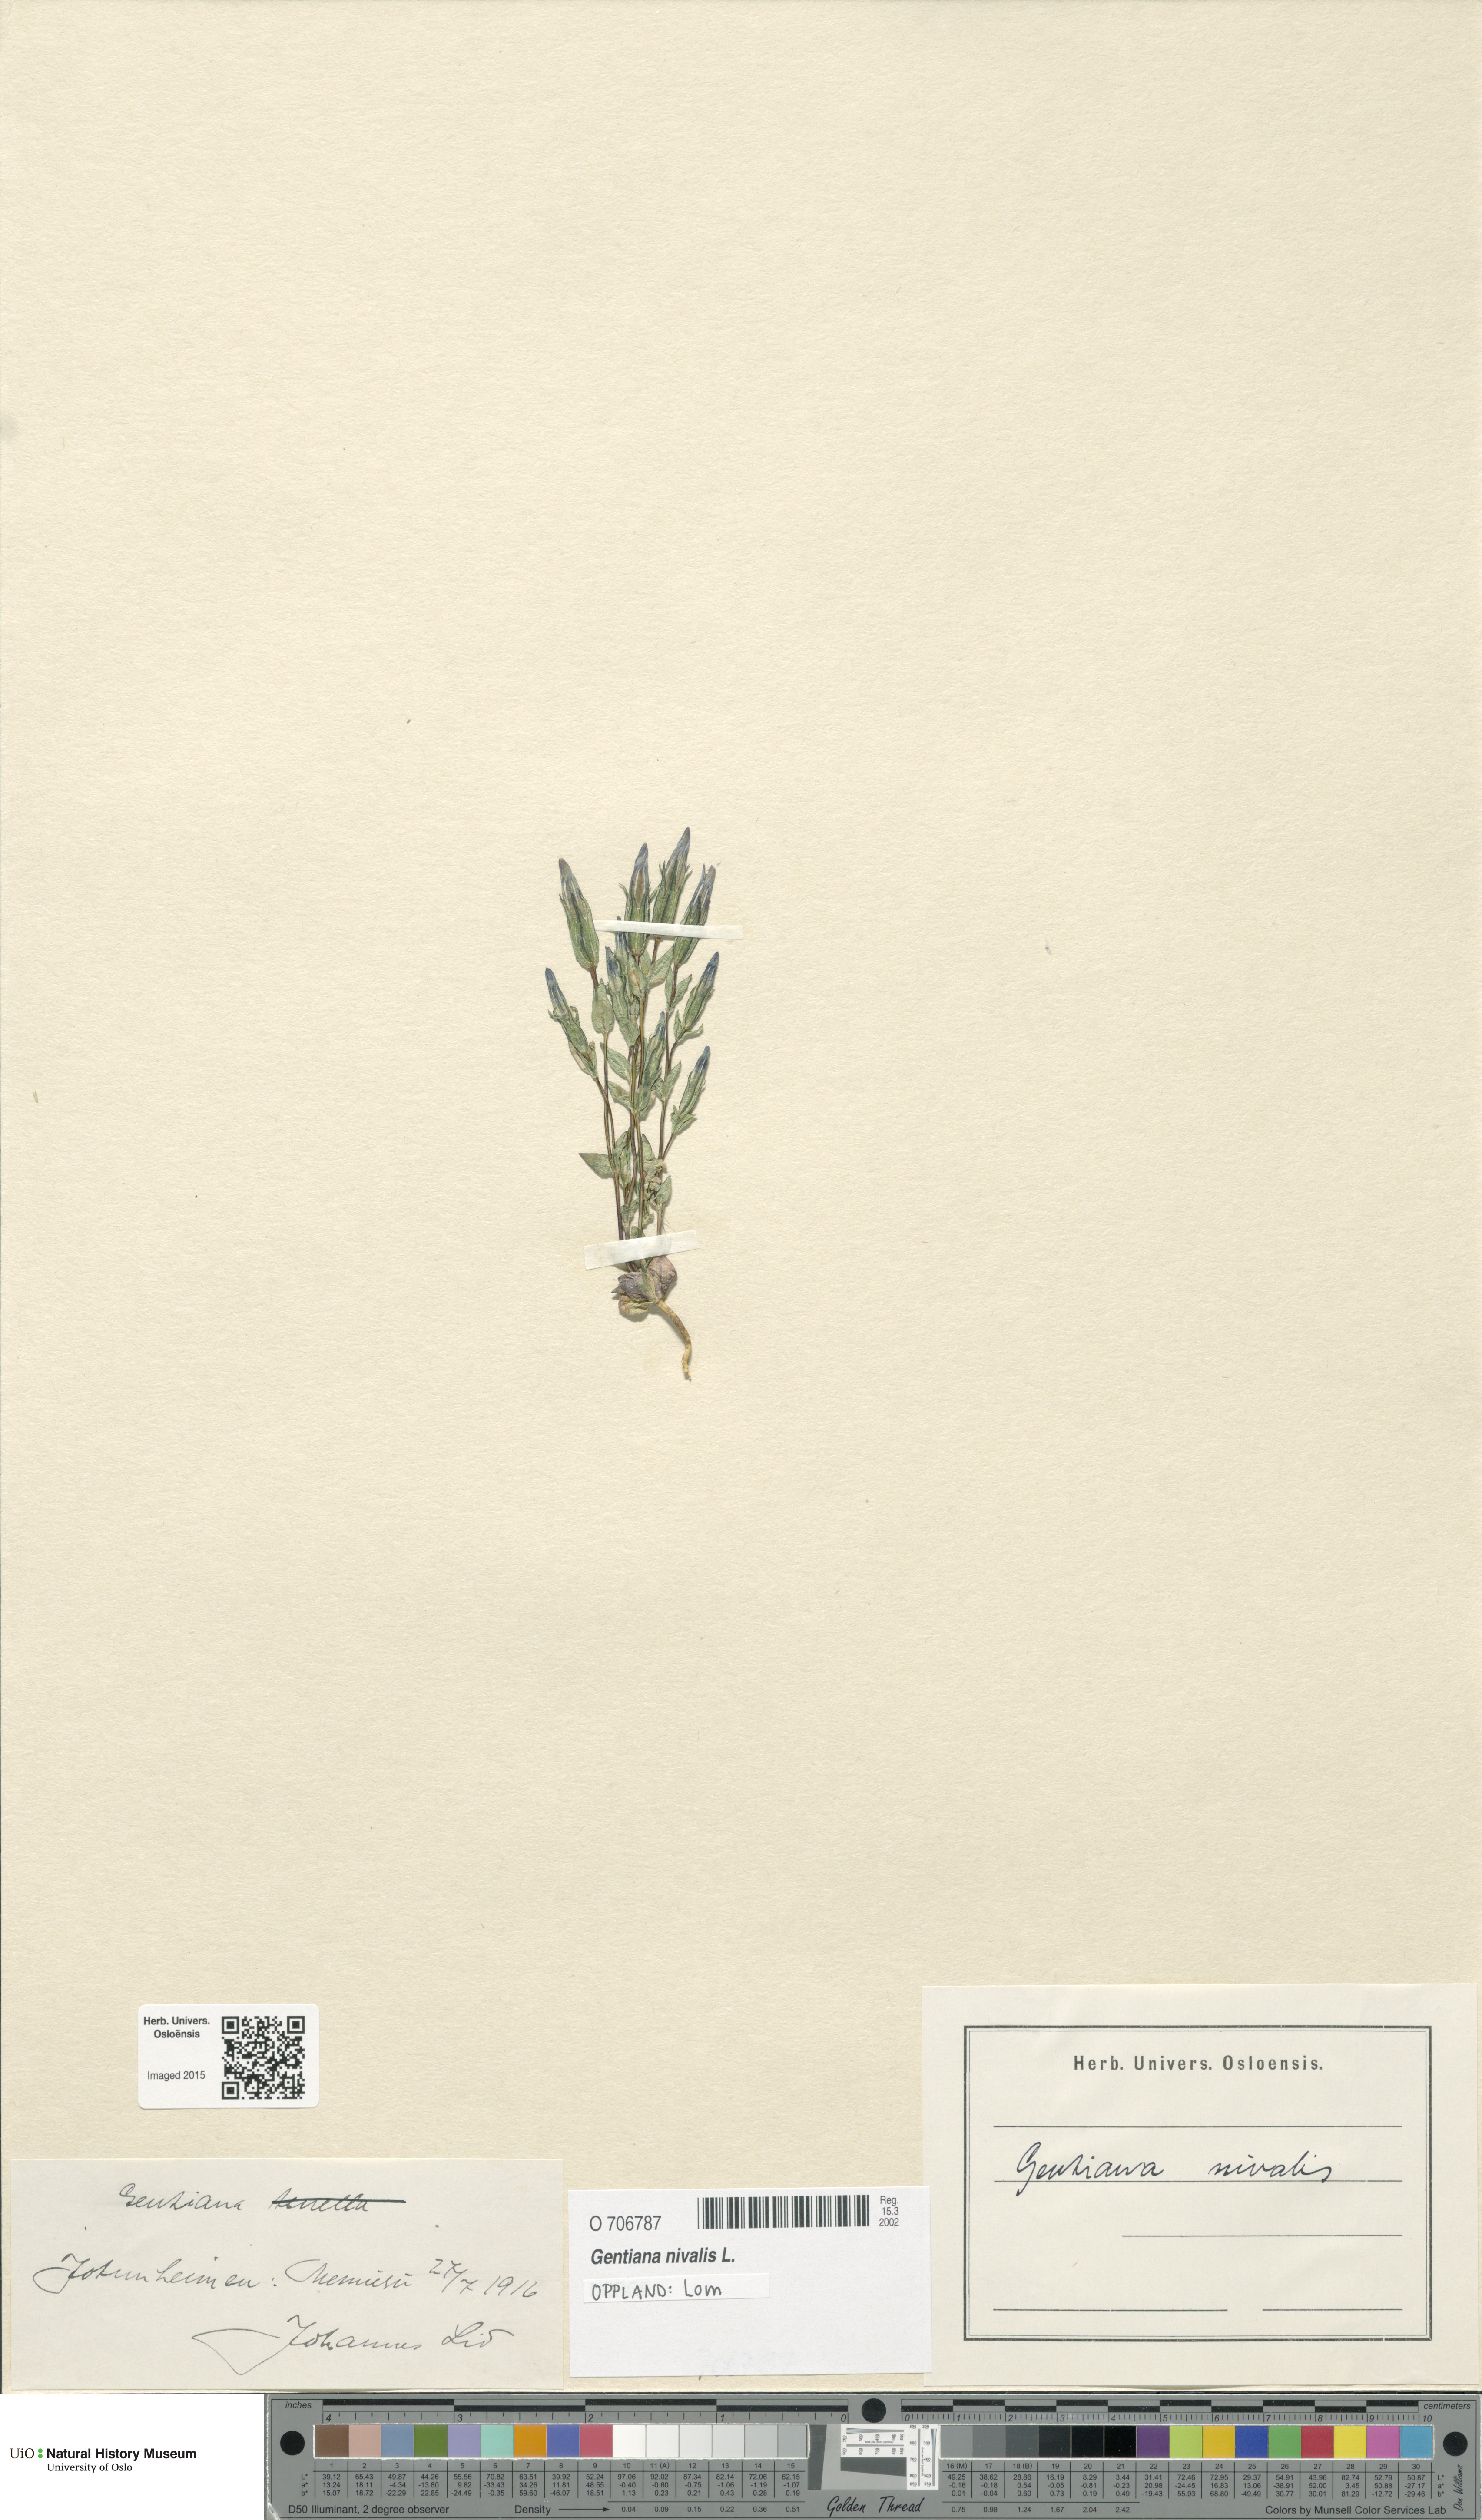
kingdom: Plantae
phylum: Tracheophyta
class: Magnoliopsida
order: Gentianales
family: Gentianaceae
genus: Gentiana
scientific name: Gentiana nivalis
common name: Alpine gentian
